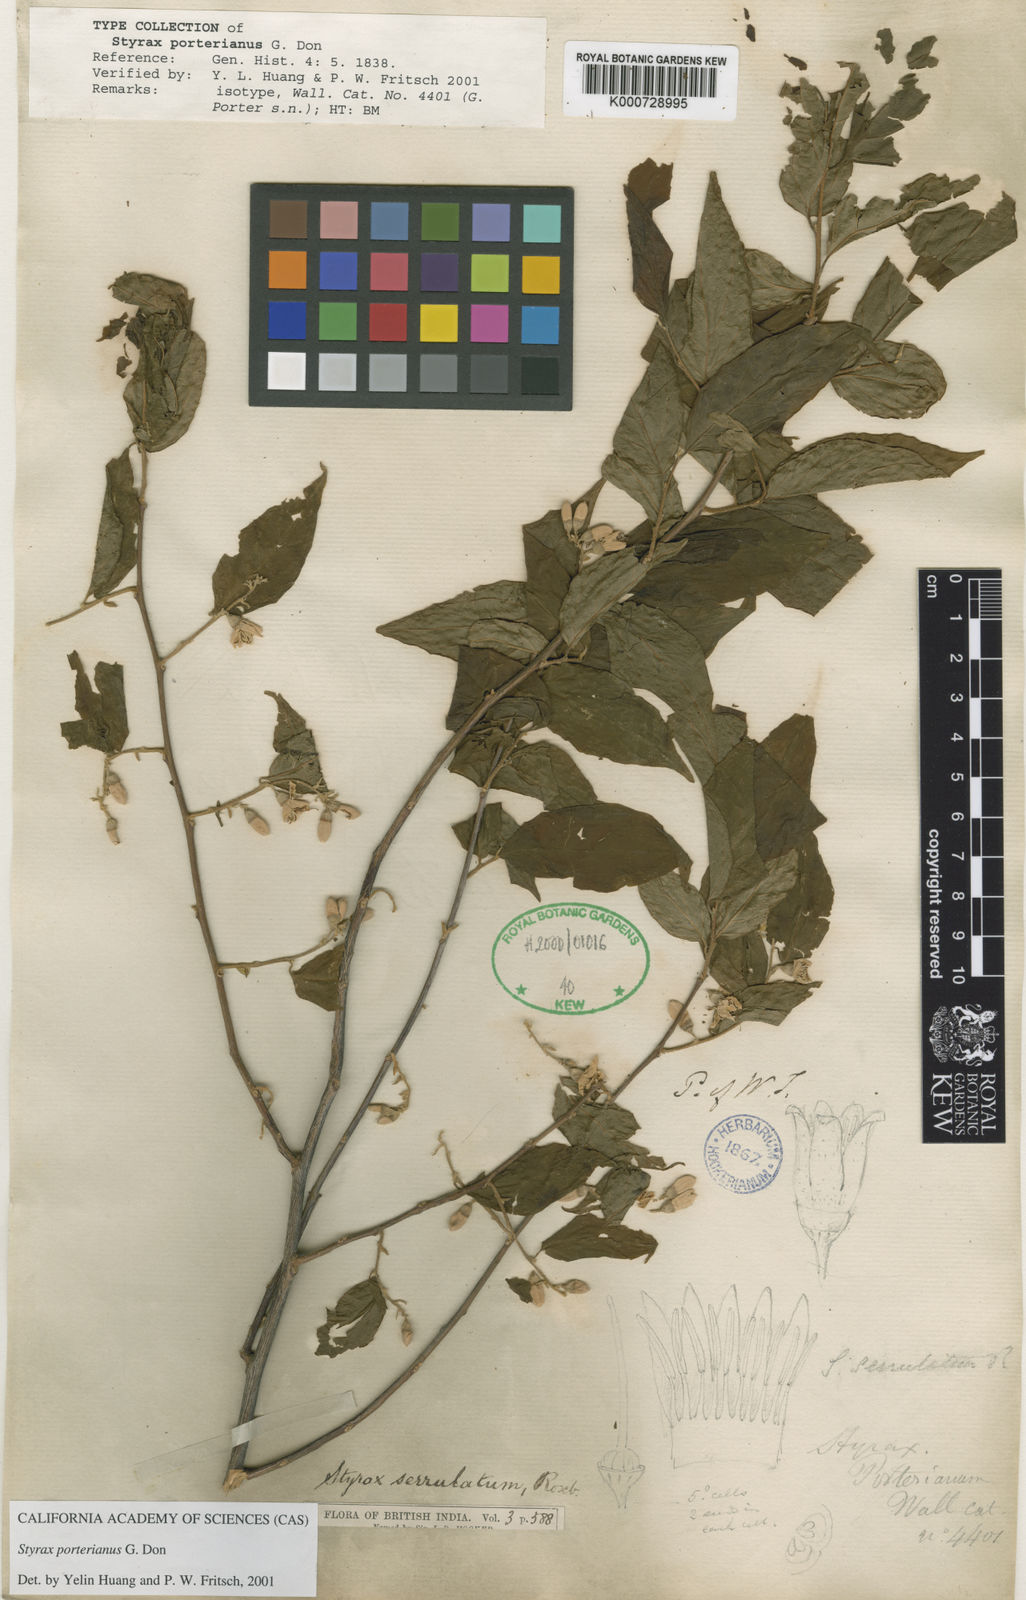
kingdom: Plantae
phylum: Tracheophyta
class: Magnoliopsida
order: Ericales
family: Styracaceae
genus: Styrax
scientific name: Styrax serrulatus
